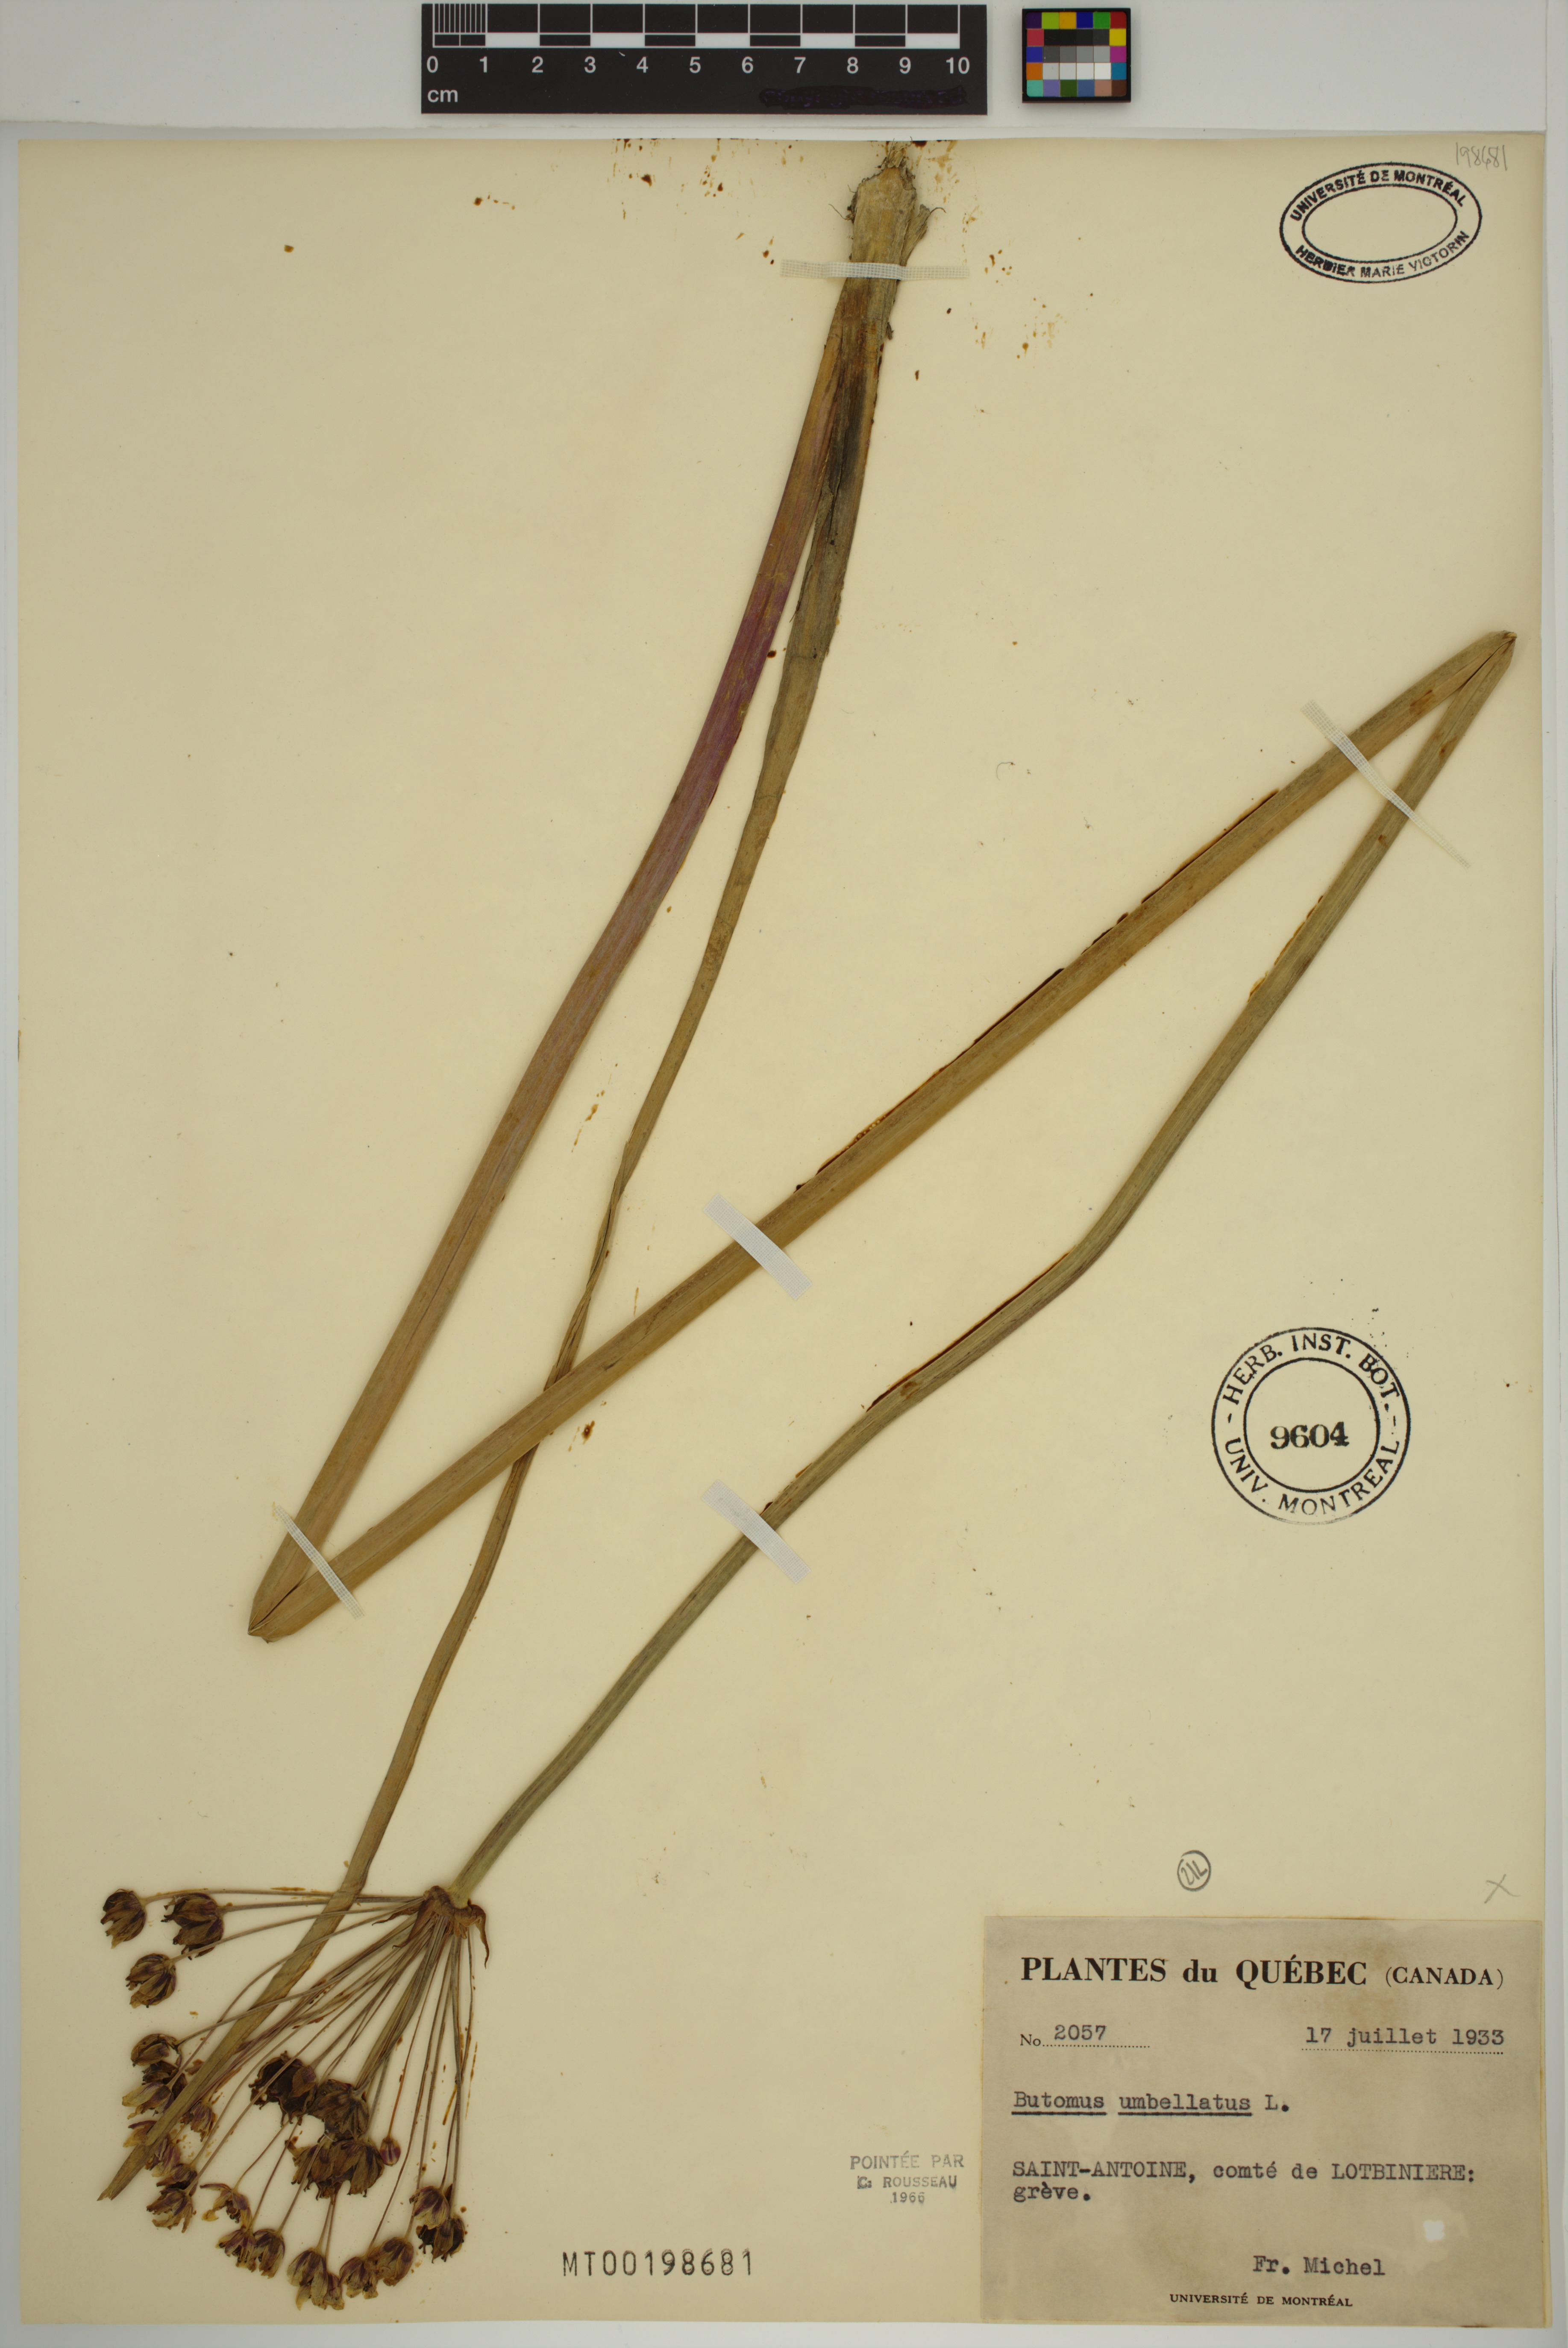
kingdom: Plantae
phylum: Tracheophyta
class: Liliopsida
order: Alismatales
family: Butomaceae
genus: Butomus
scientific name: Butomus umbellatus
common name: Flowering-rush
